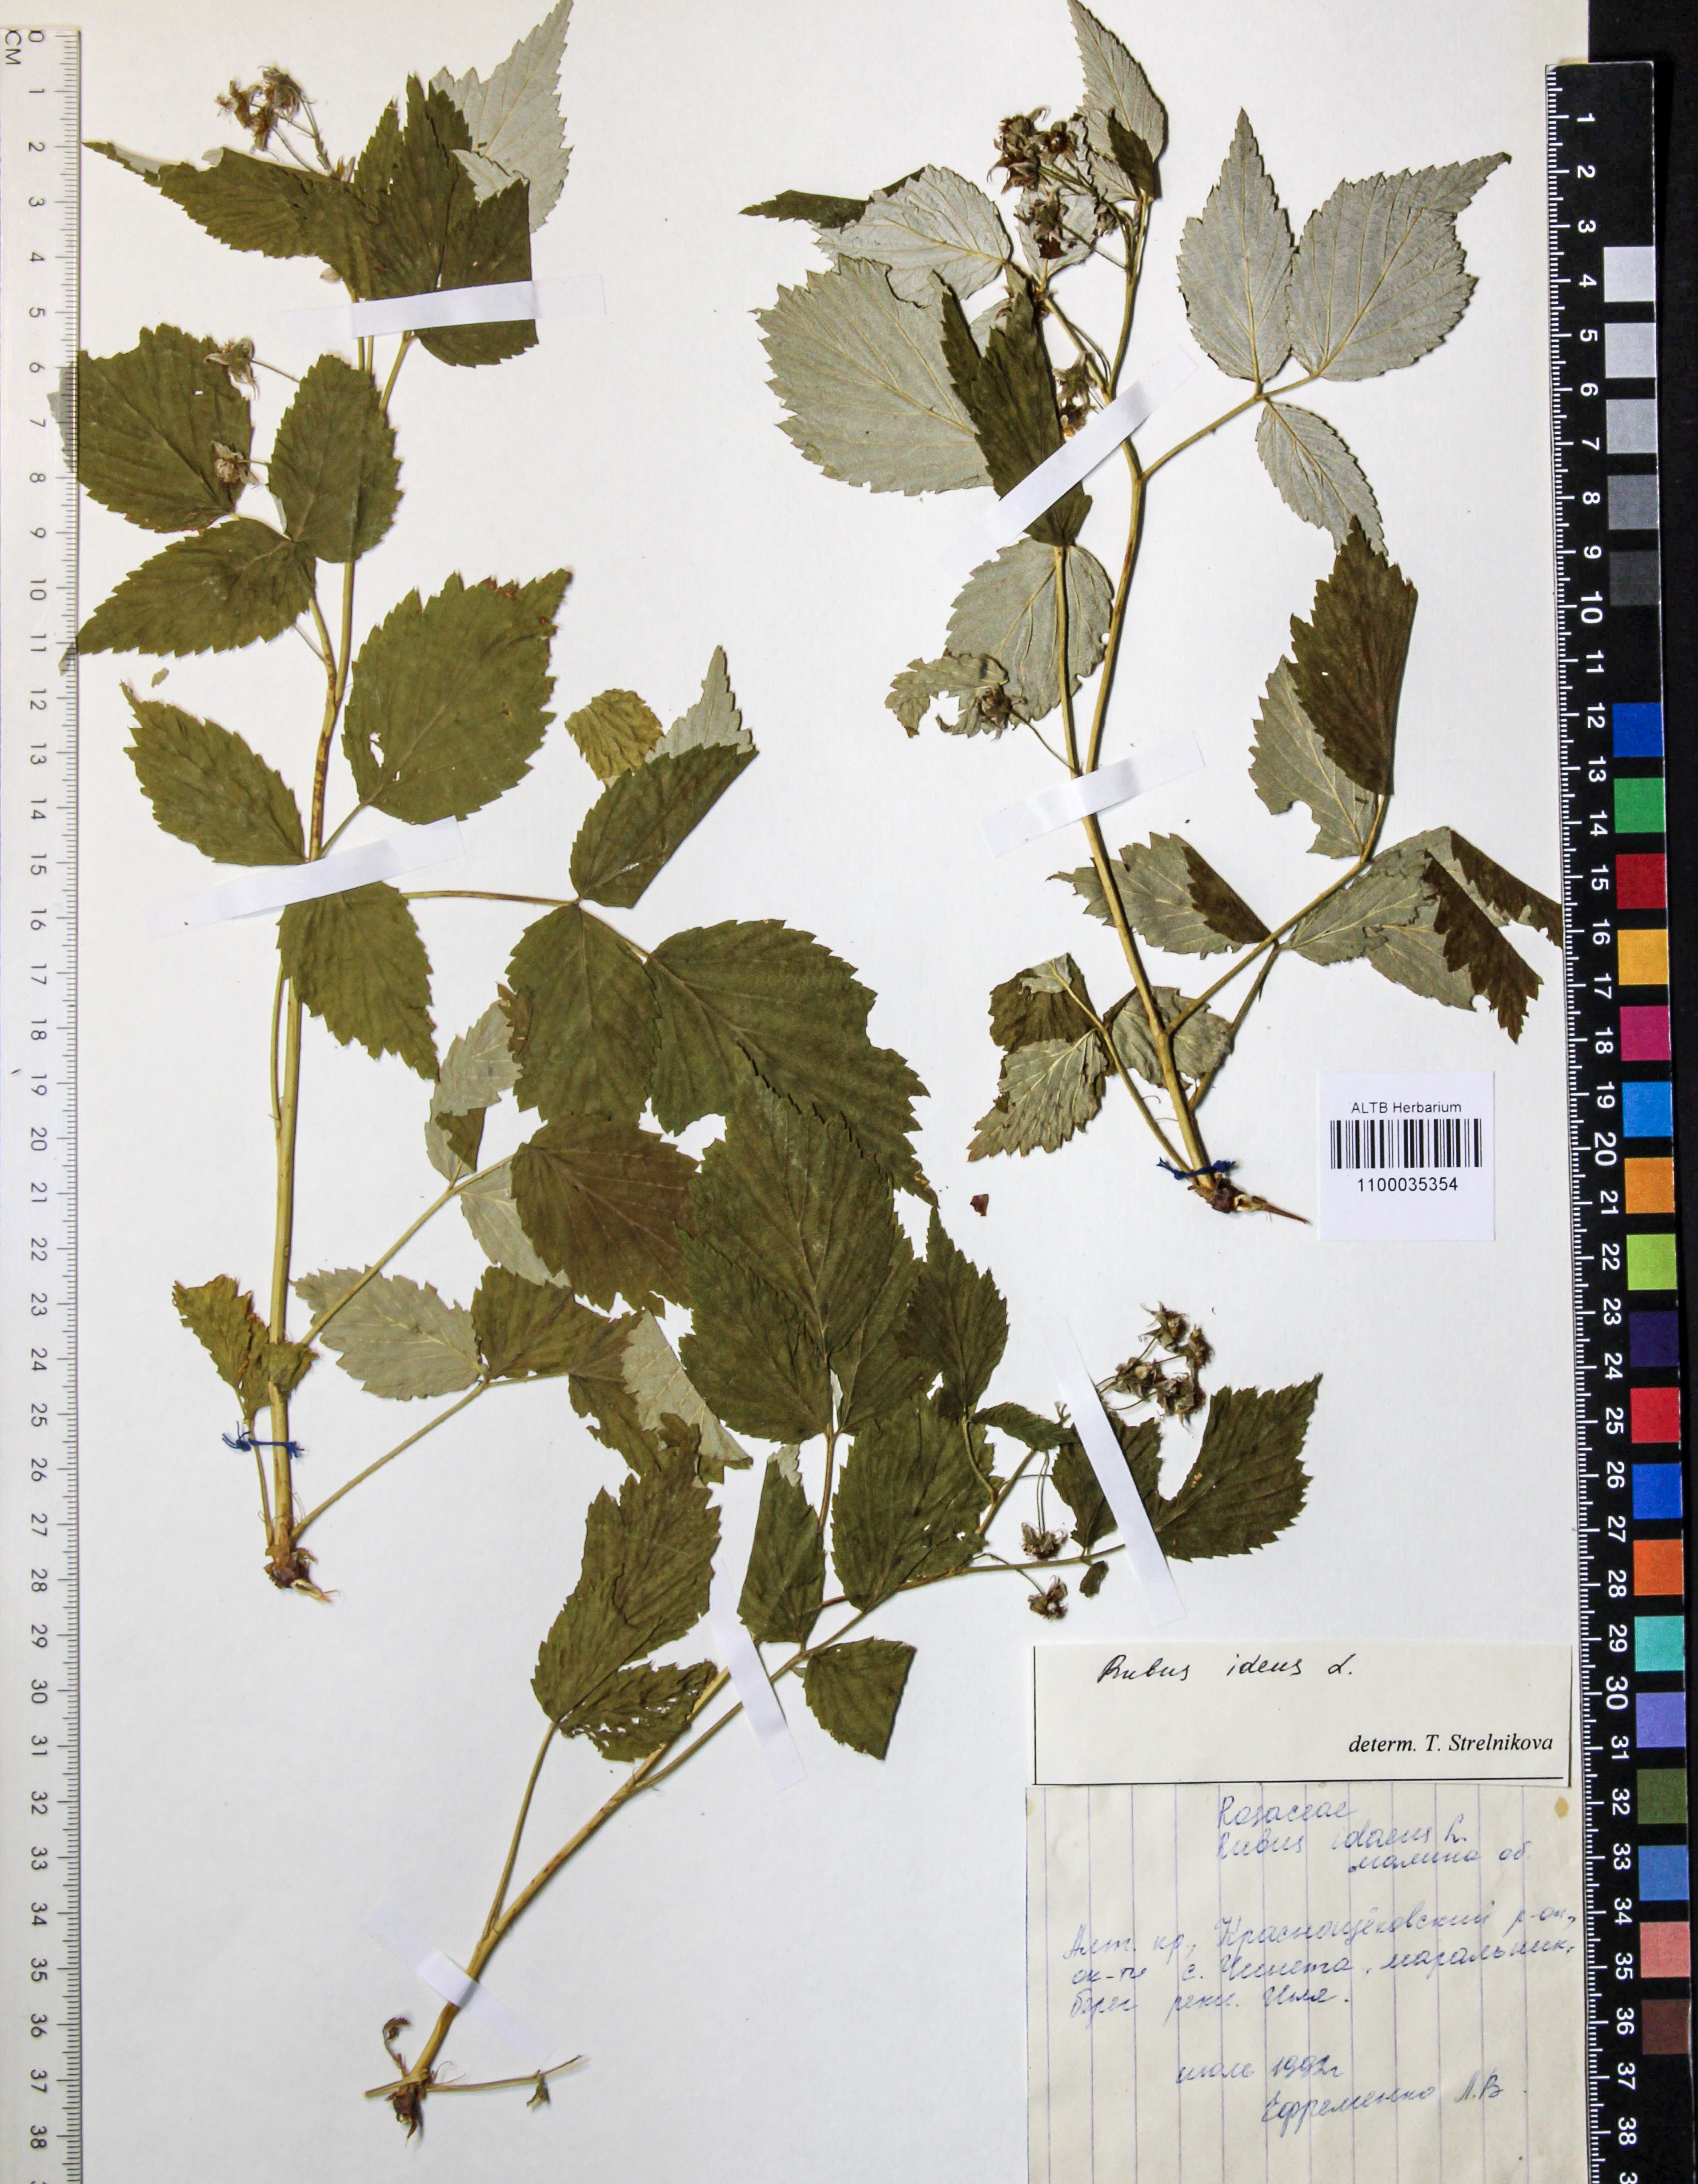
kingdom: Plantae
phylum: Tracheophyta
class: Magnoliopsida
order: Rosales
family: Rosaceae
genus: Rubus
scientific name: Rubus idaeus
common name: Raspberry
